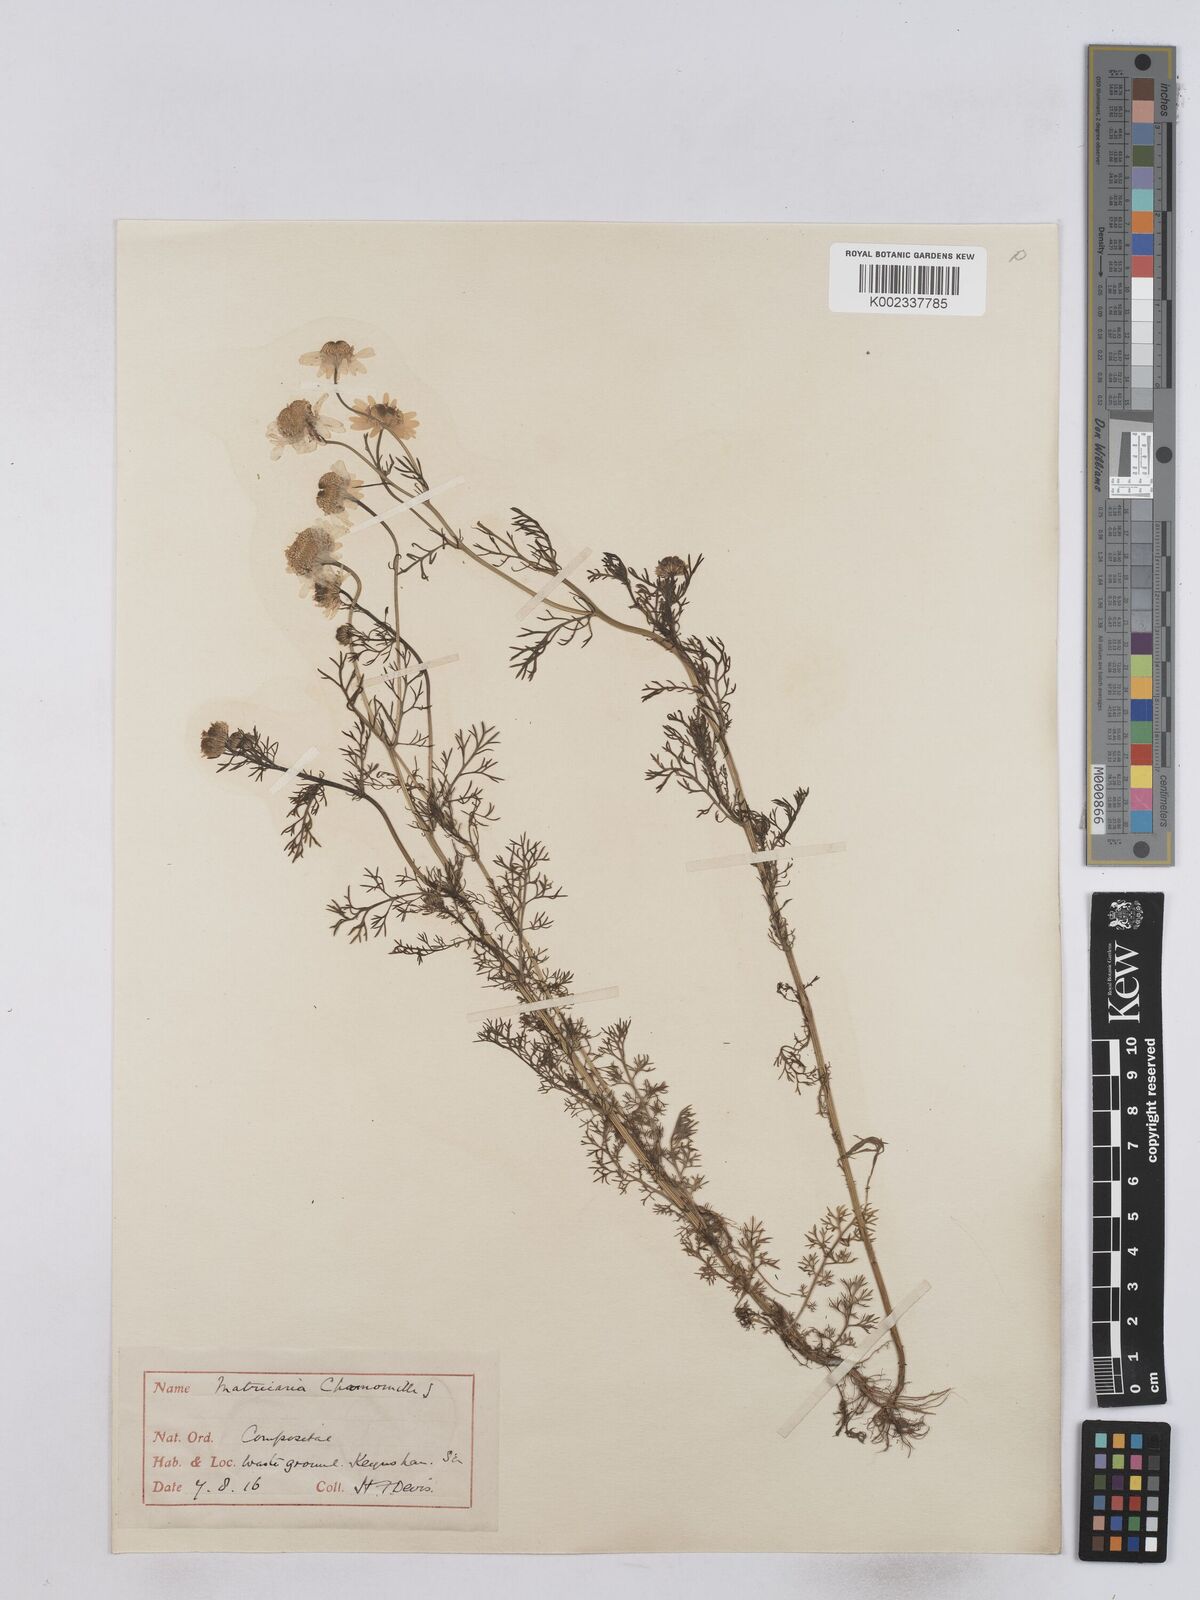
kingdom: Plantae
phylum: Tracheophyta
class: Magnoliopsida
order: Asterales
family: Asteraceae
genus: Matricaria
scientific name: Matricaria chamomilla
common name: Scented mayweed
